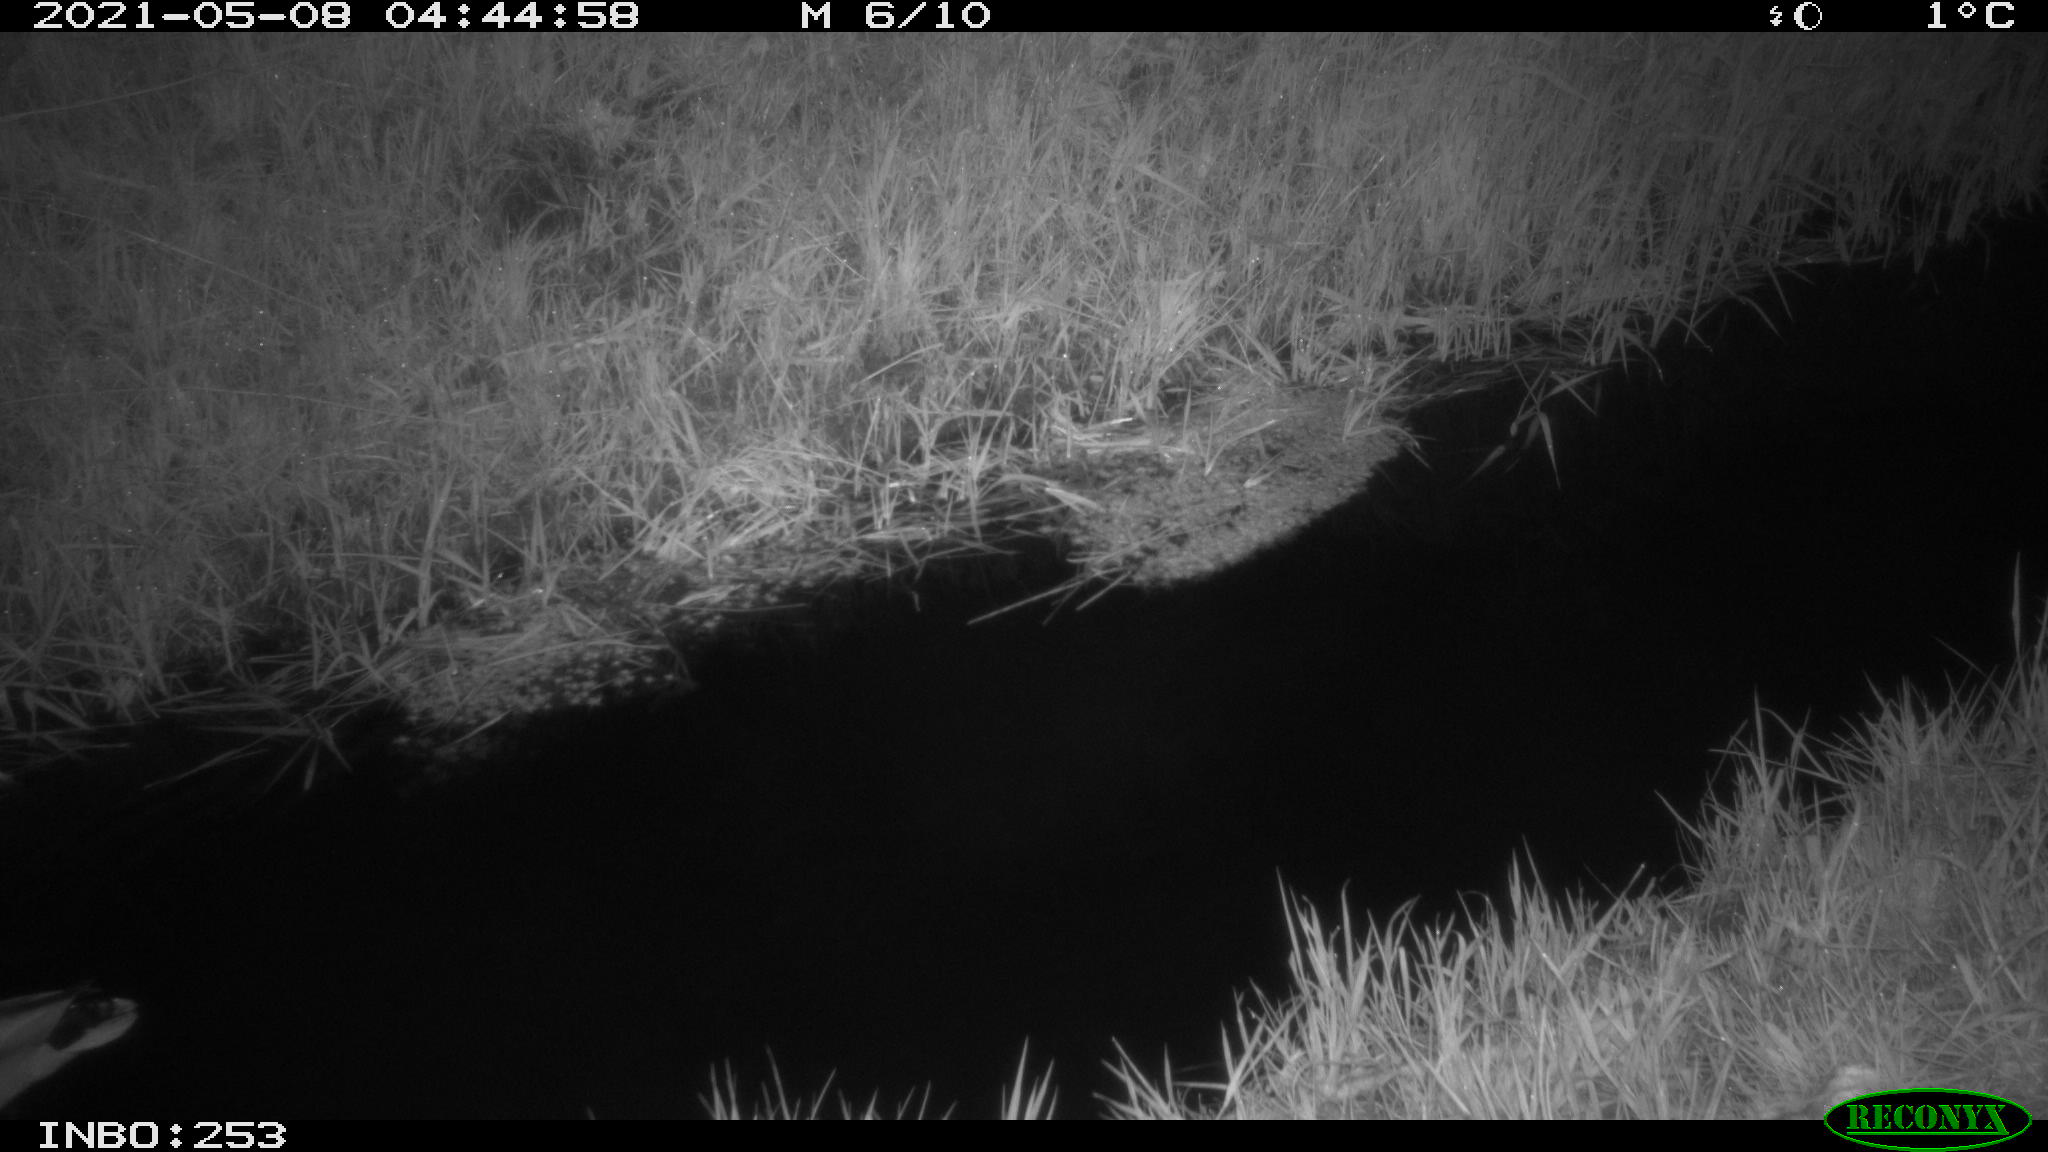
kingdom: Animalia
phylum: Chordata
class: Aves
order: Anseriformes
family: Anatidae
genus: Anas
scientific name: Anas platyrhynchos
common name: Mallard
